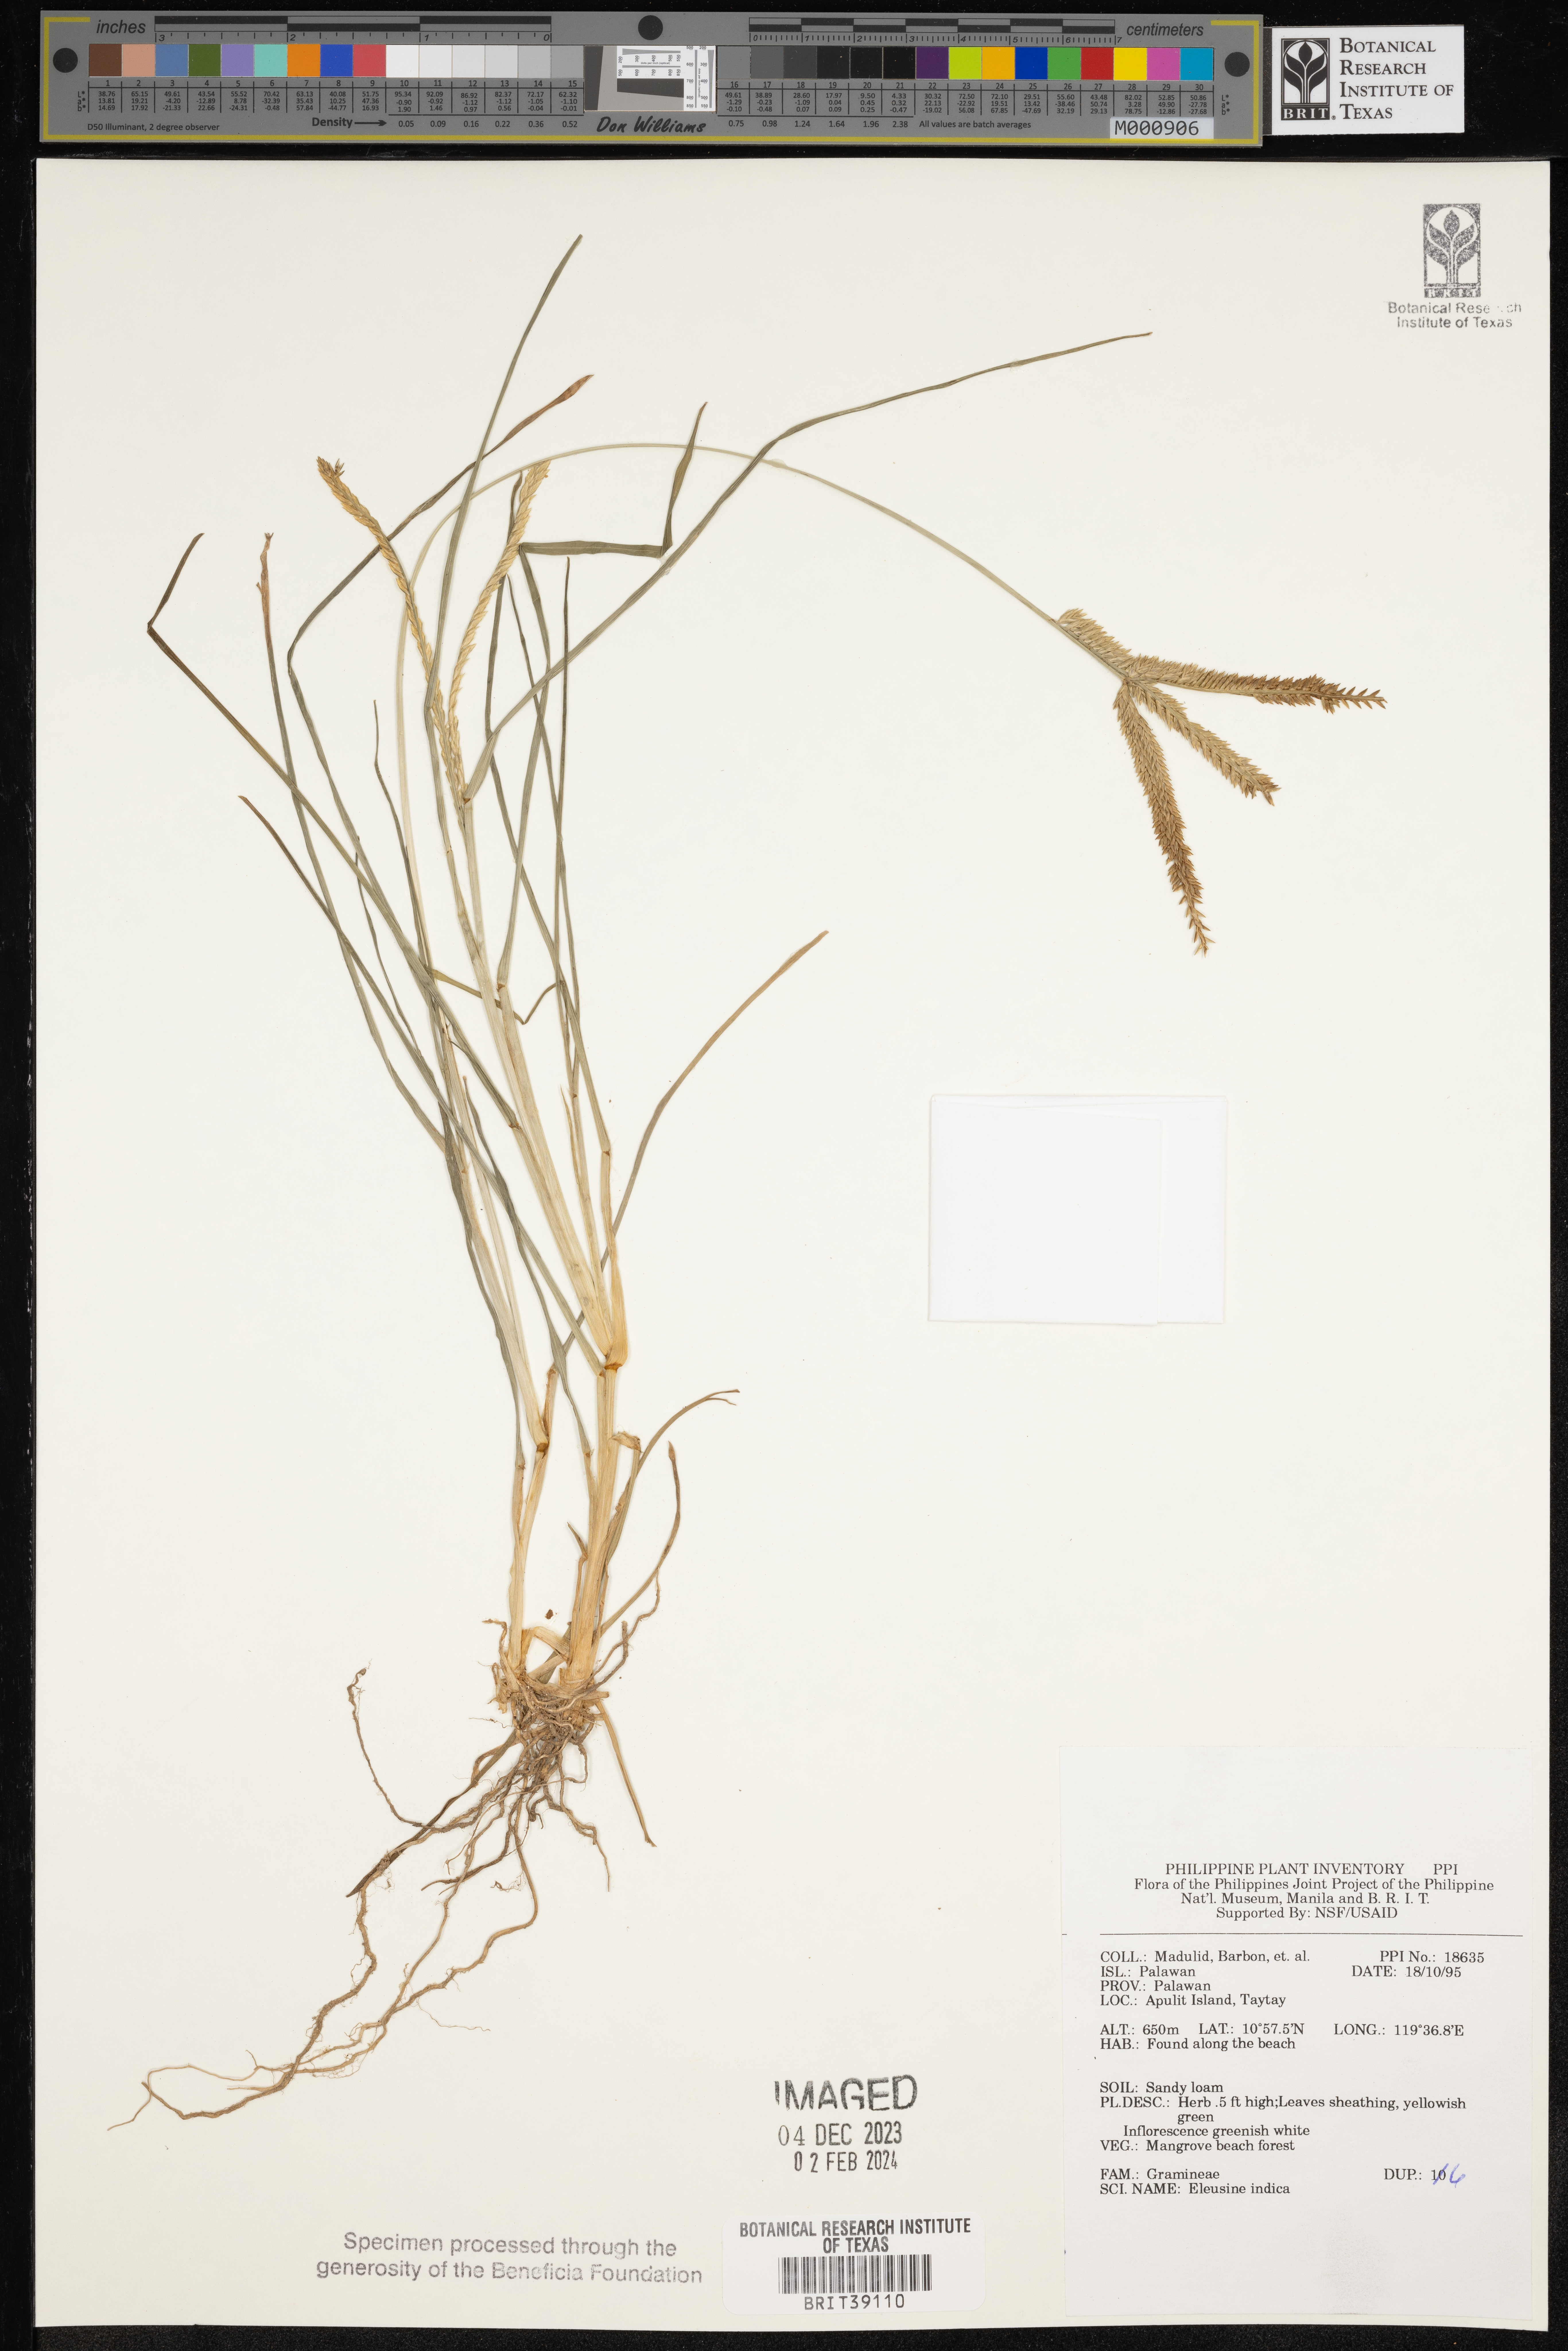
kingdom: Plantae
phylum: Tracheophyta
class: Liliopsida
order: Poales
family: Poaceae
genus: Eleusine
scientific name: Eleusine indica
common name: Yard-grass
